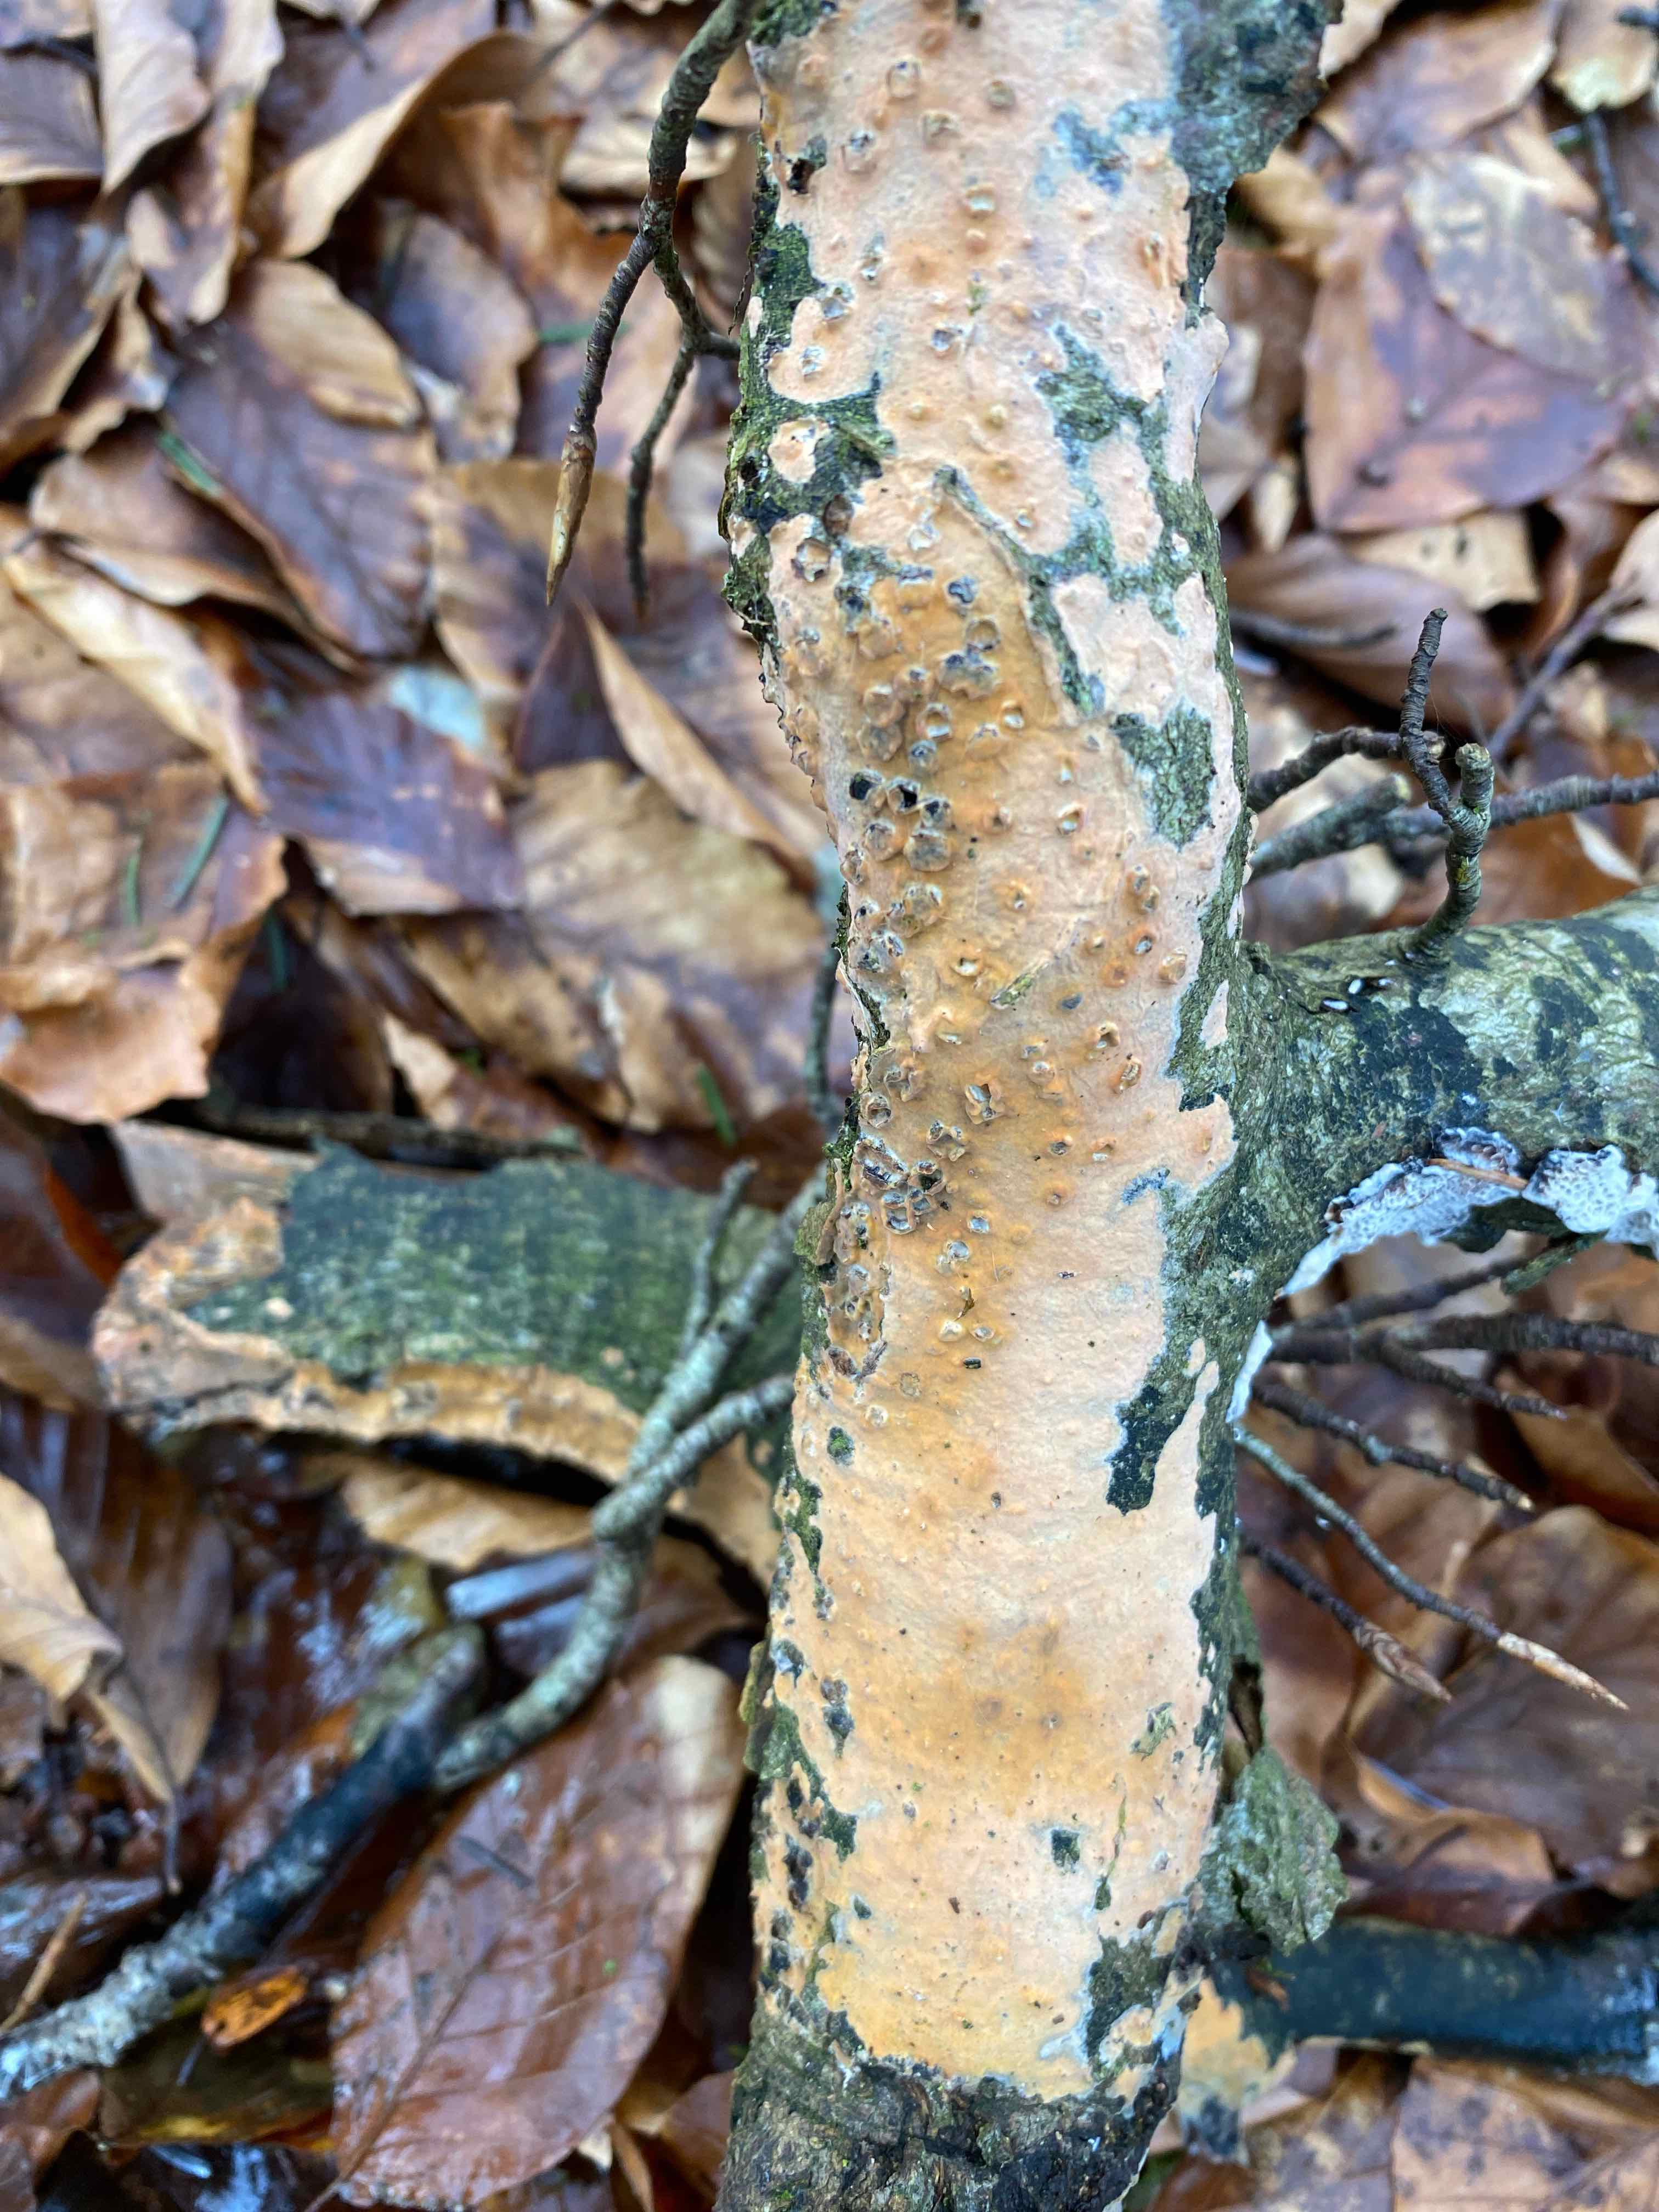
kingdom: Fungi
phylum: Basidiomycota
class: Agaricomycetes
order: Russulales
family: Peniophoraceae
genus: Peniophora
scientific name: Peniophora incarnata
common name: laksefarvet voksskind
